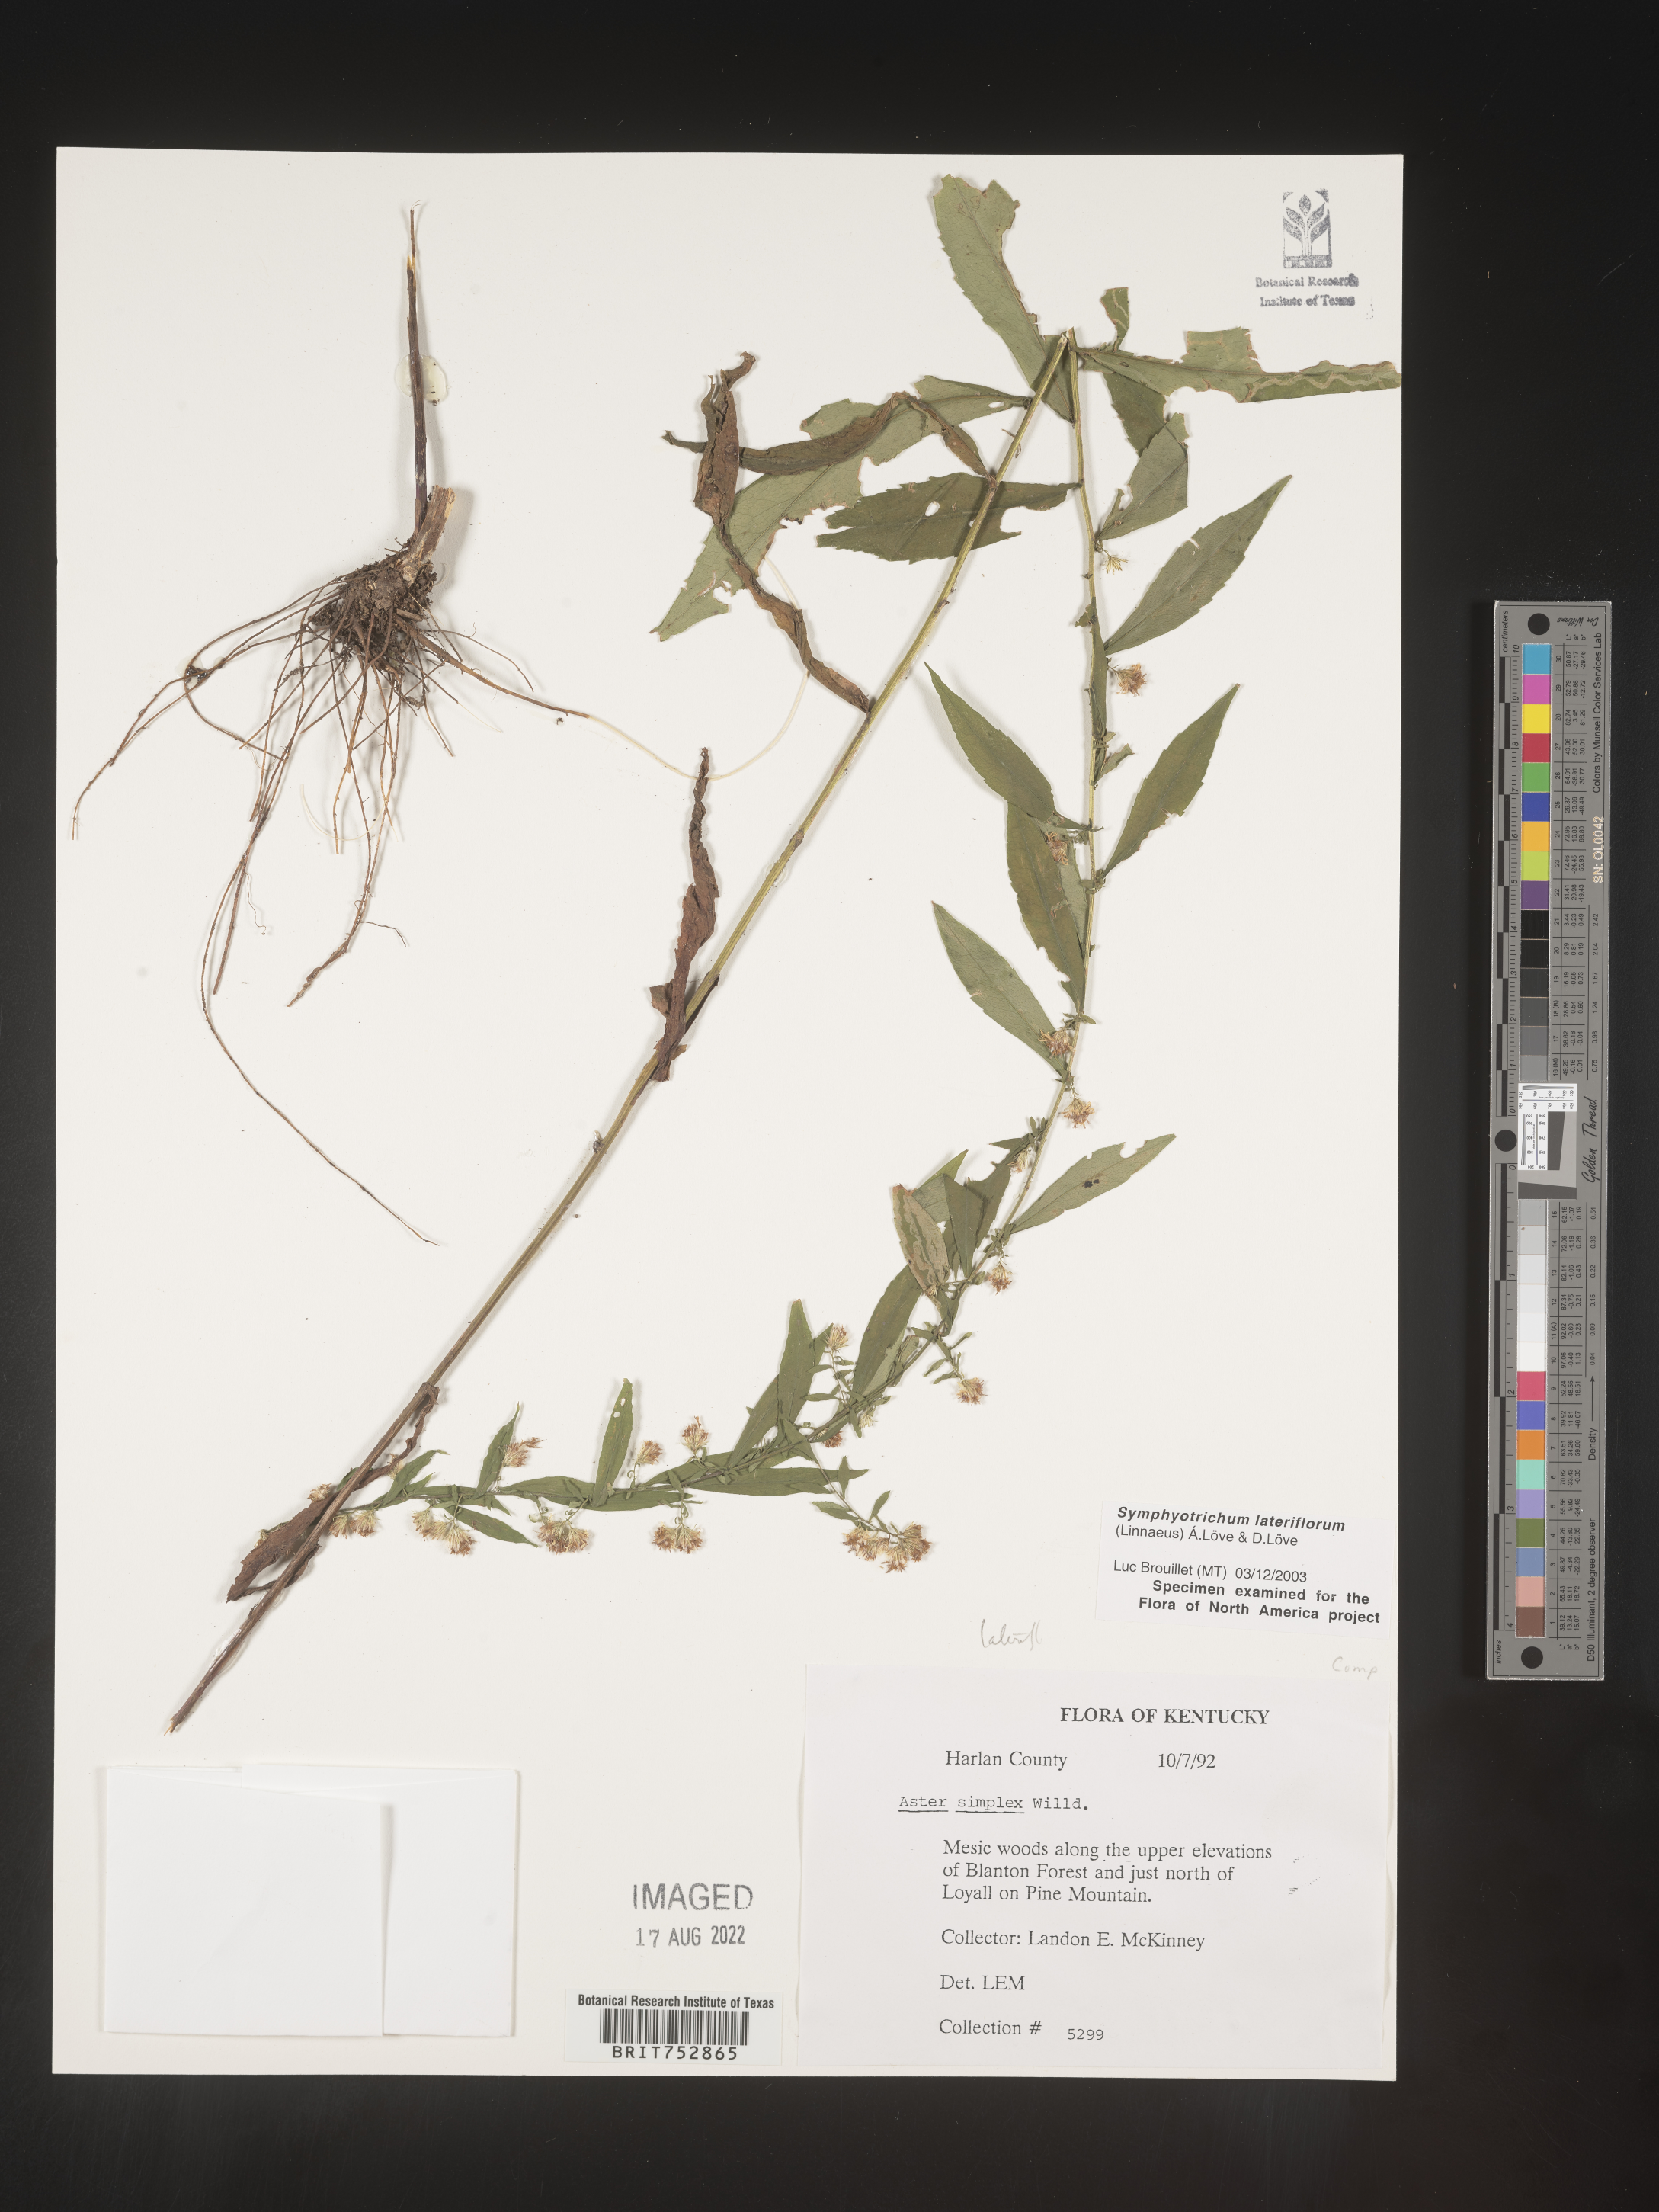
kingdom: Plantae
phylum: Tracheophyta
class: Magnoliopsida
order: Asterales
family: Asteraceae
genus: Symphyotrichum
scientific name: Symphyotrichum lateriflorum
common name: Calico aster
